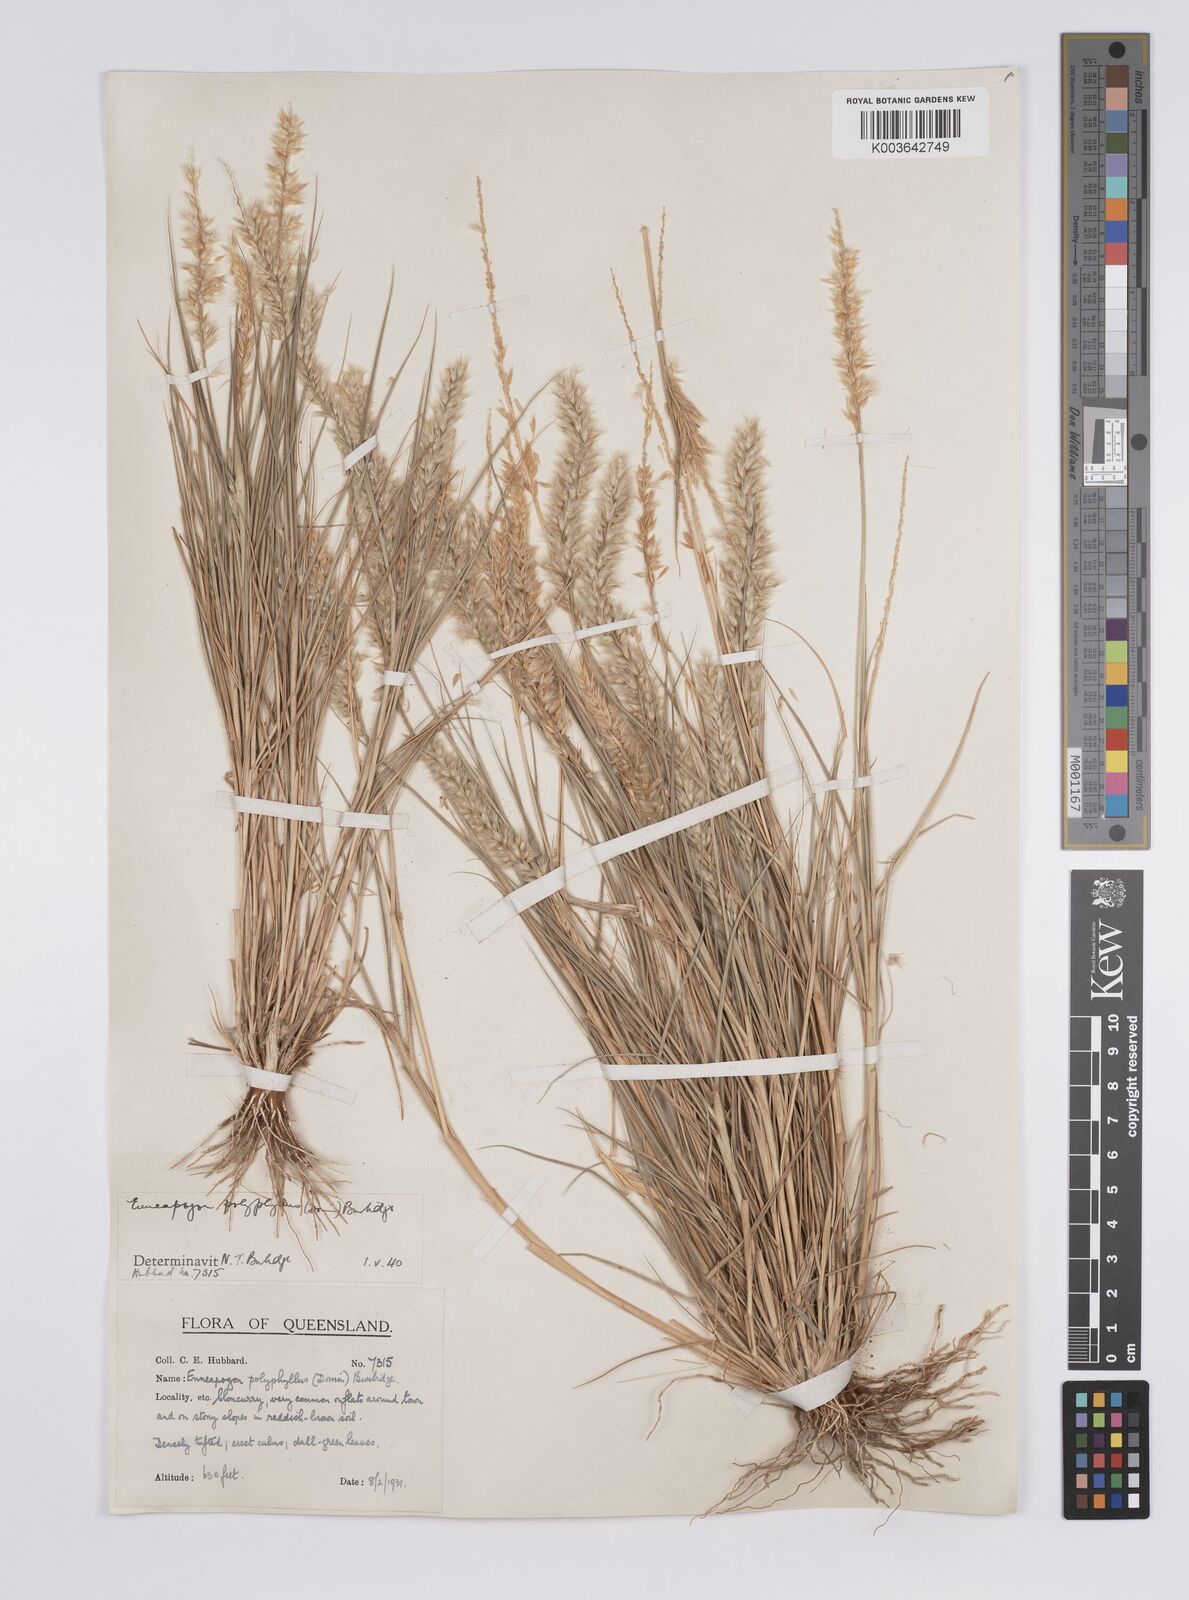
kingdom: Plantae
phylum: Tracheophyta
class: Liliopsida
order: Poales
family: Poaceae
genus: Enneapogon
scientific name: Enneapogon polyphyllus
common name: Leafy nineawn
